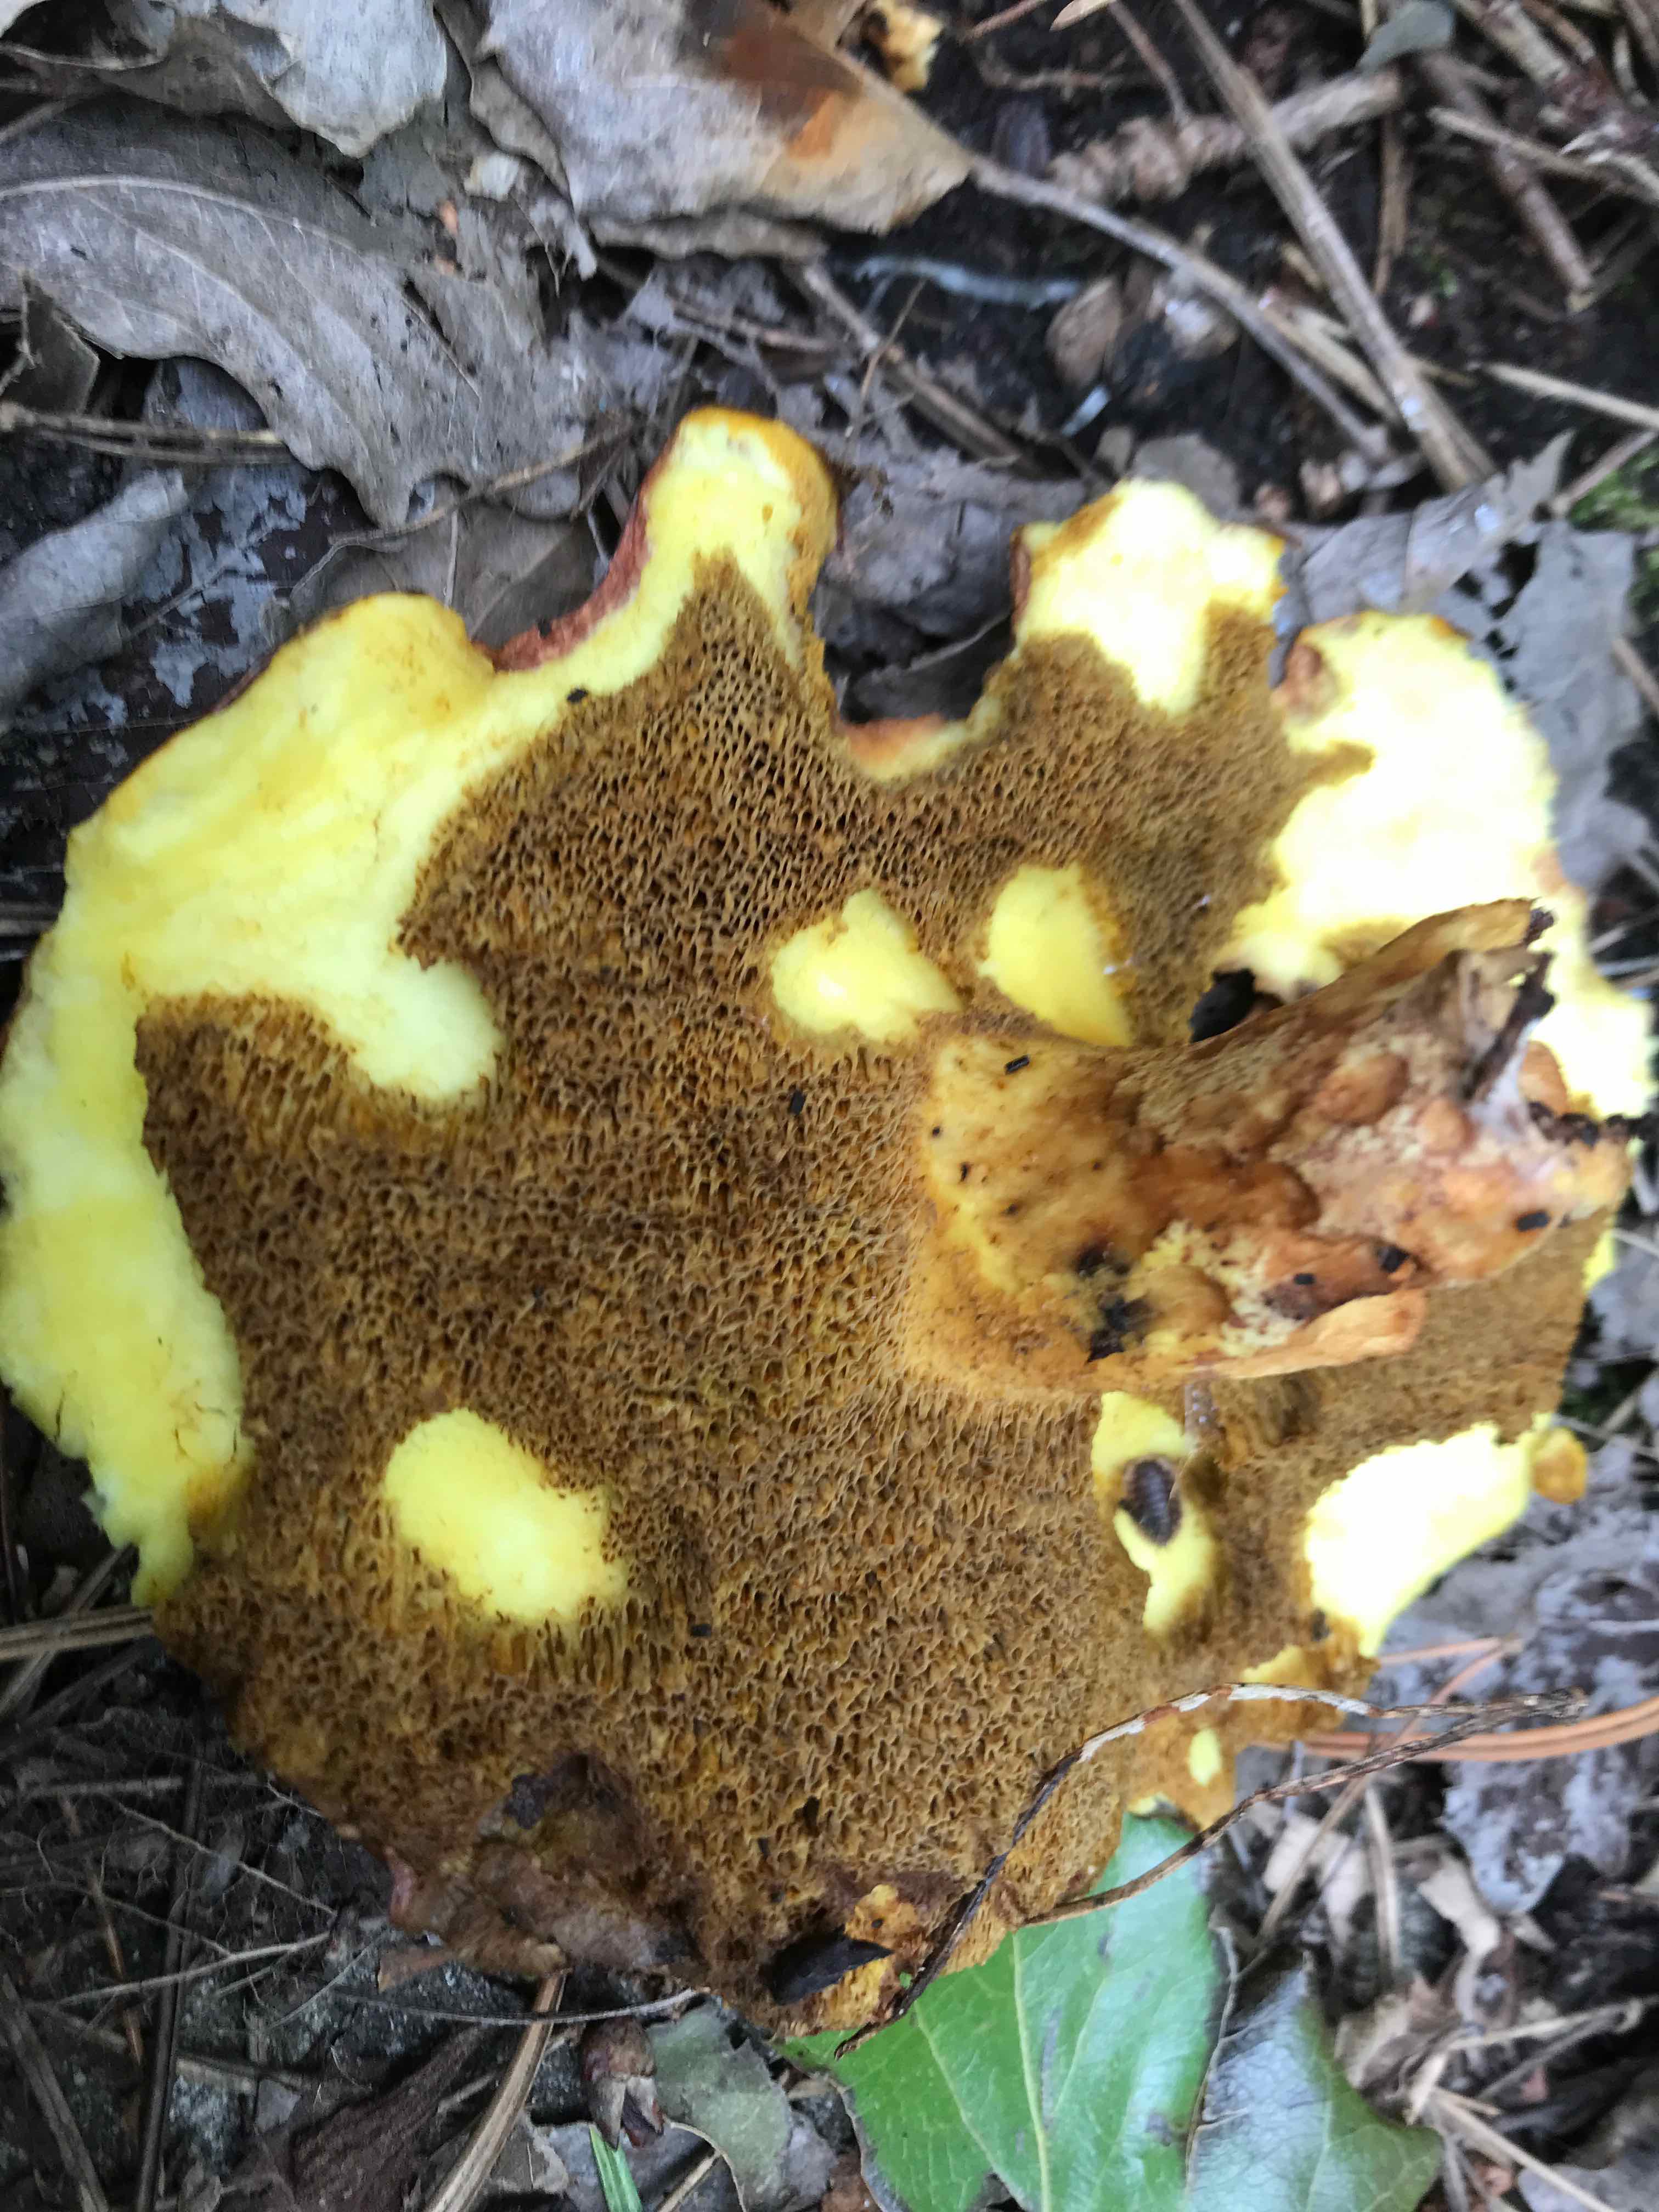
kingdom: Fungi
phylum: Basidiomycota
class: Agaricomycetes
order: Boletales
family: Suillaceae
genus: Suillus
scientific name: Suillus collinitus
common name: rosafodet slimrørhat
